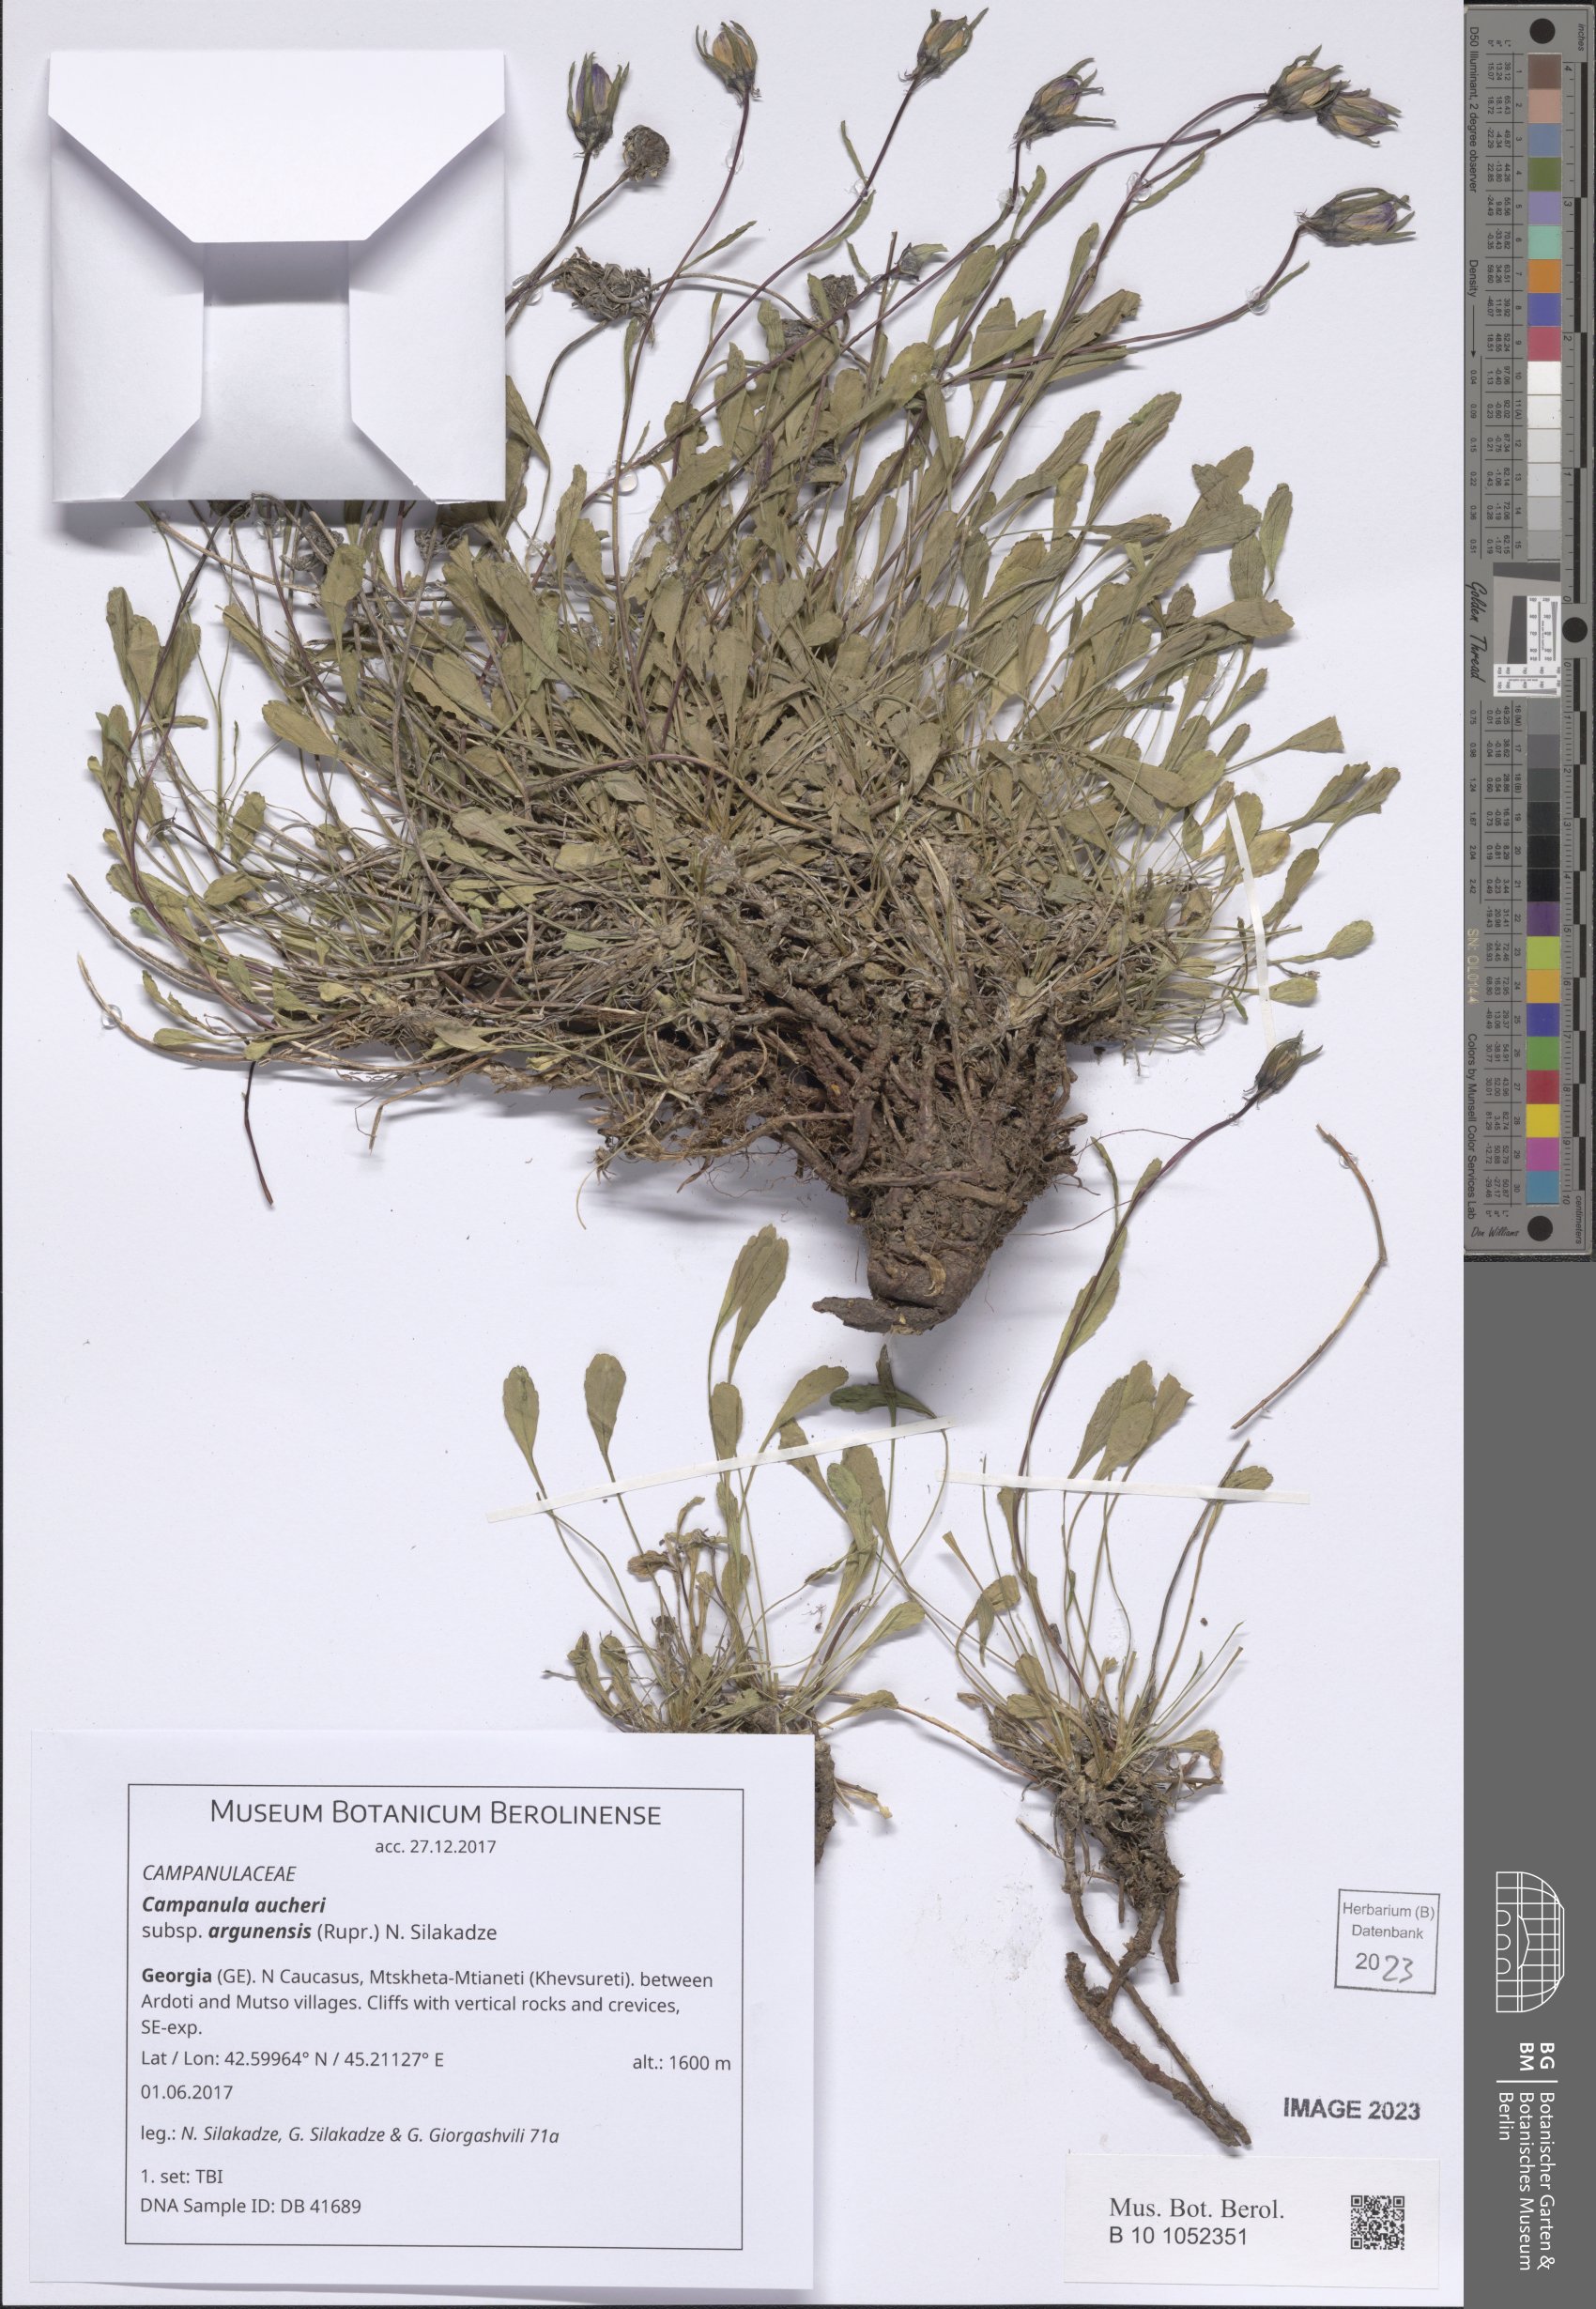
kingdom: Plantae
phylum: Tracheophyta
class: Magnoliopsida
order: Asterales
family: Campanulaceae
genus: Campanula
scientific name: Campanula saxifraga
